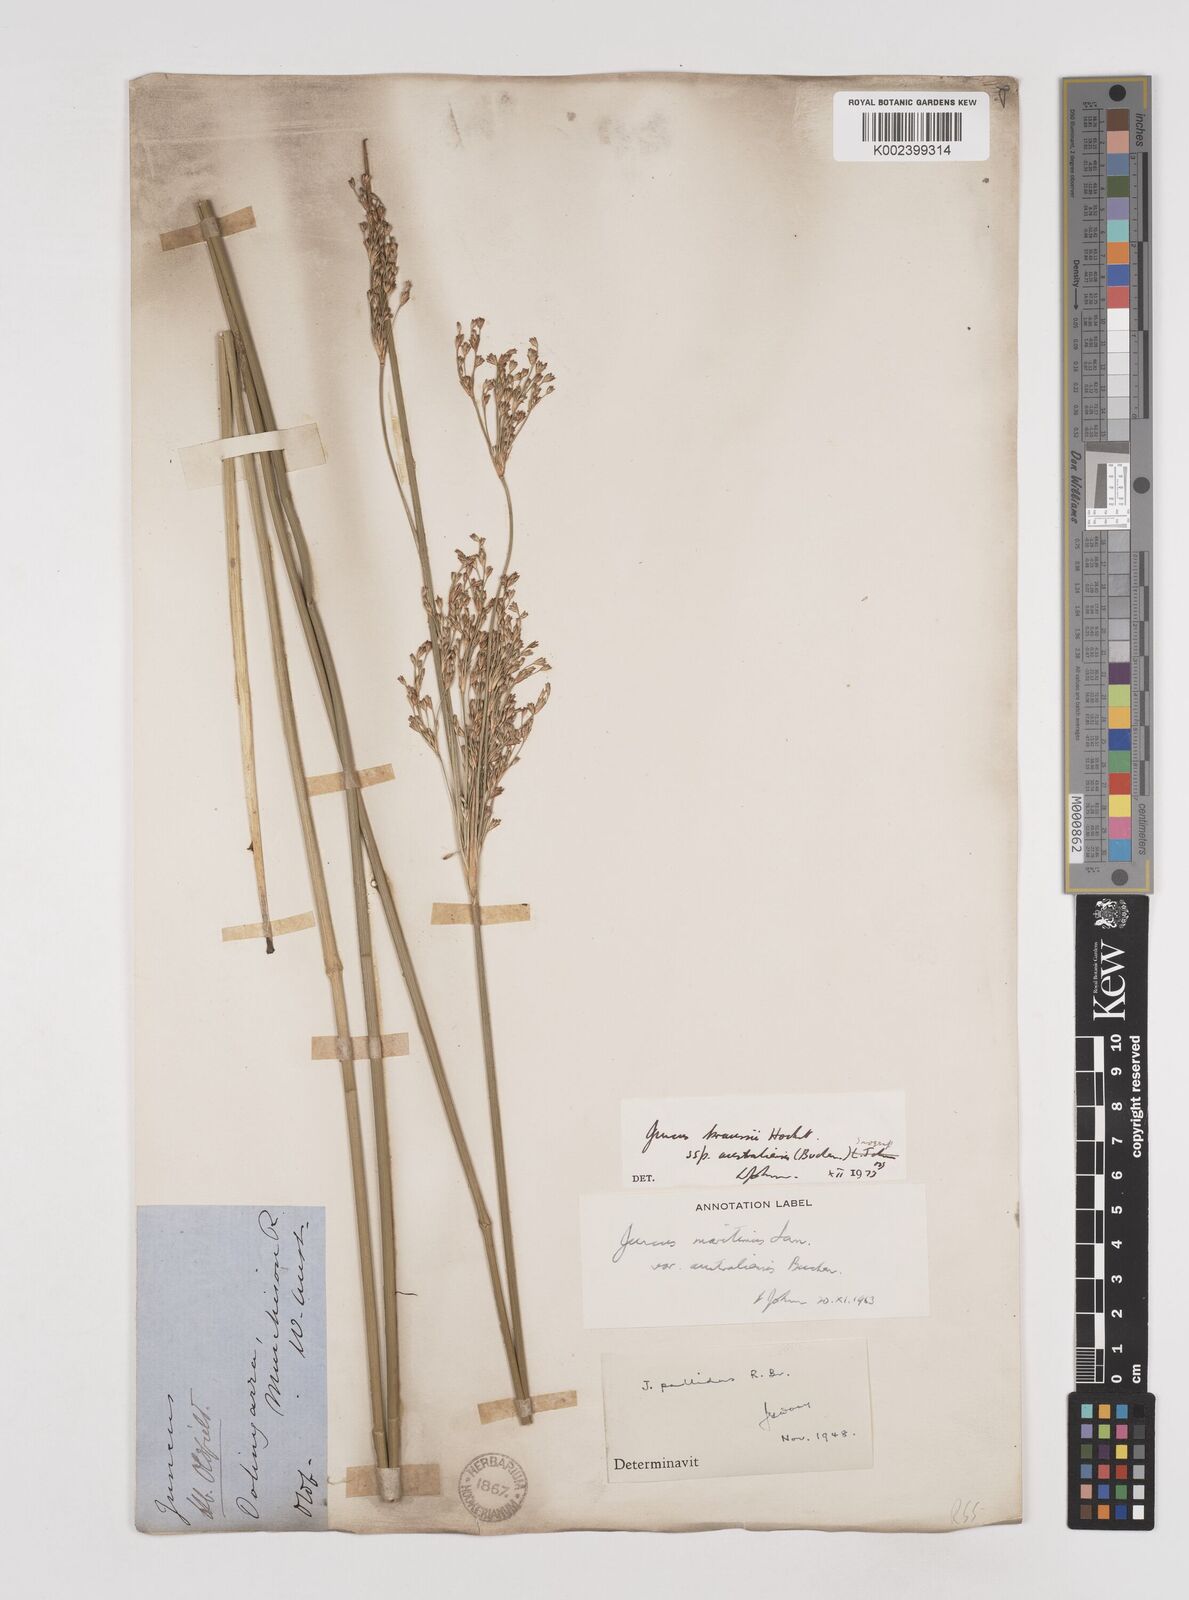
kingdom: Plantae
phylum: Tracheophyta
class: Liliopsida
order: Poales
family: Juncaceae
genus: Juncus
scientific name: Juncus kraussii
